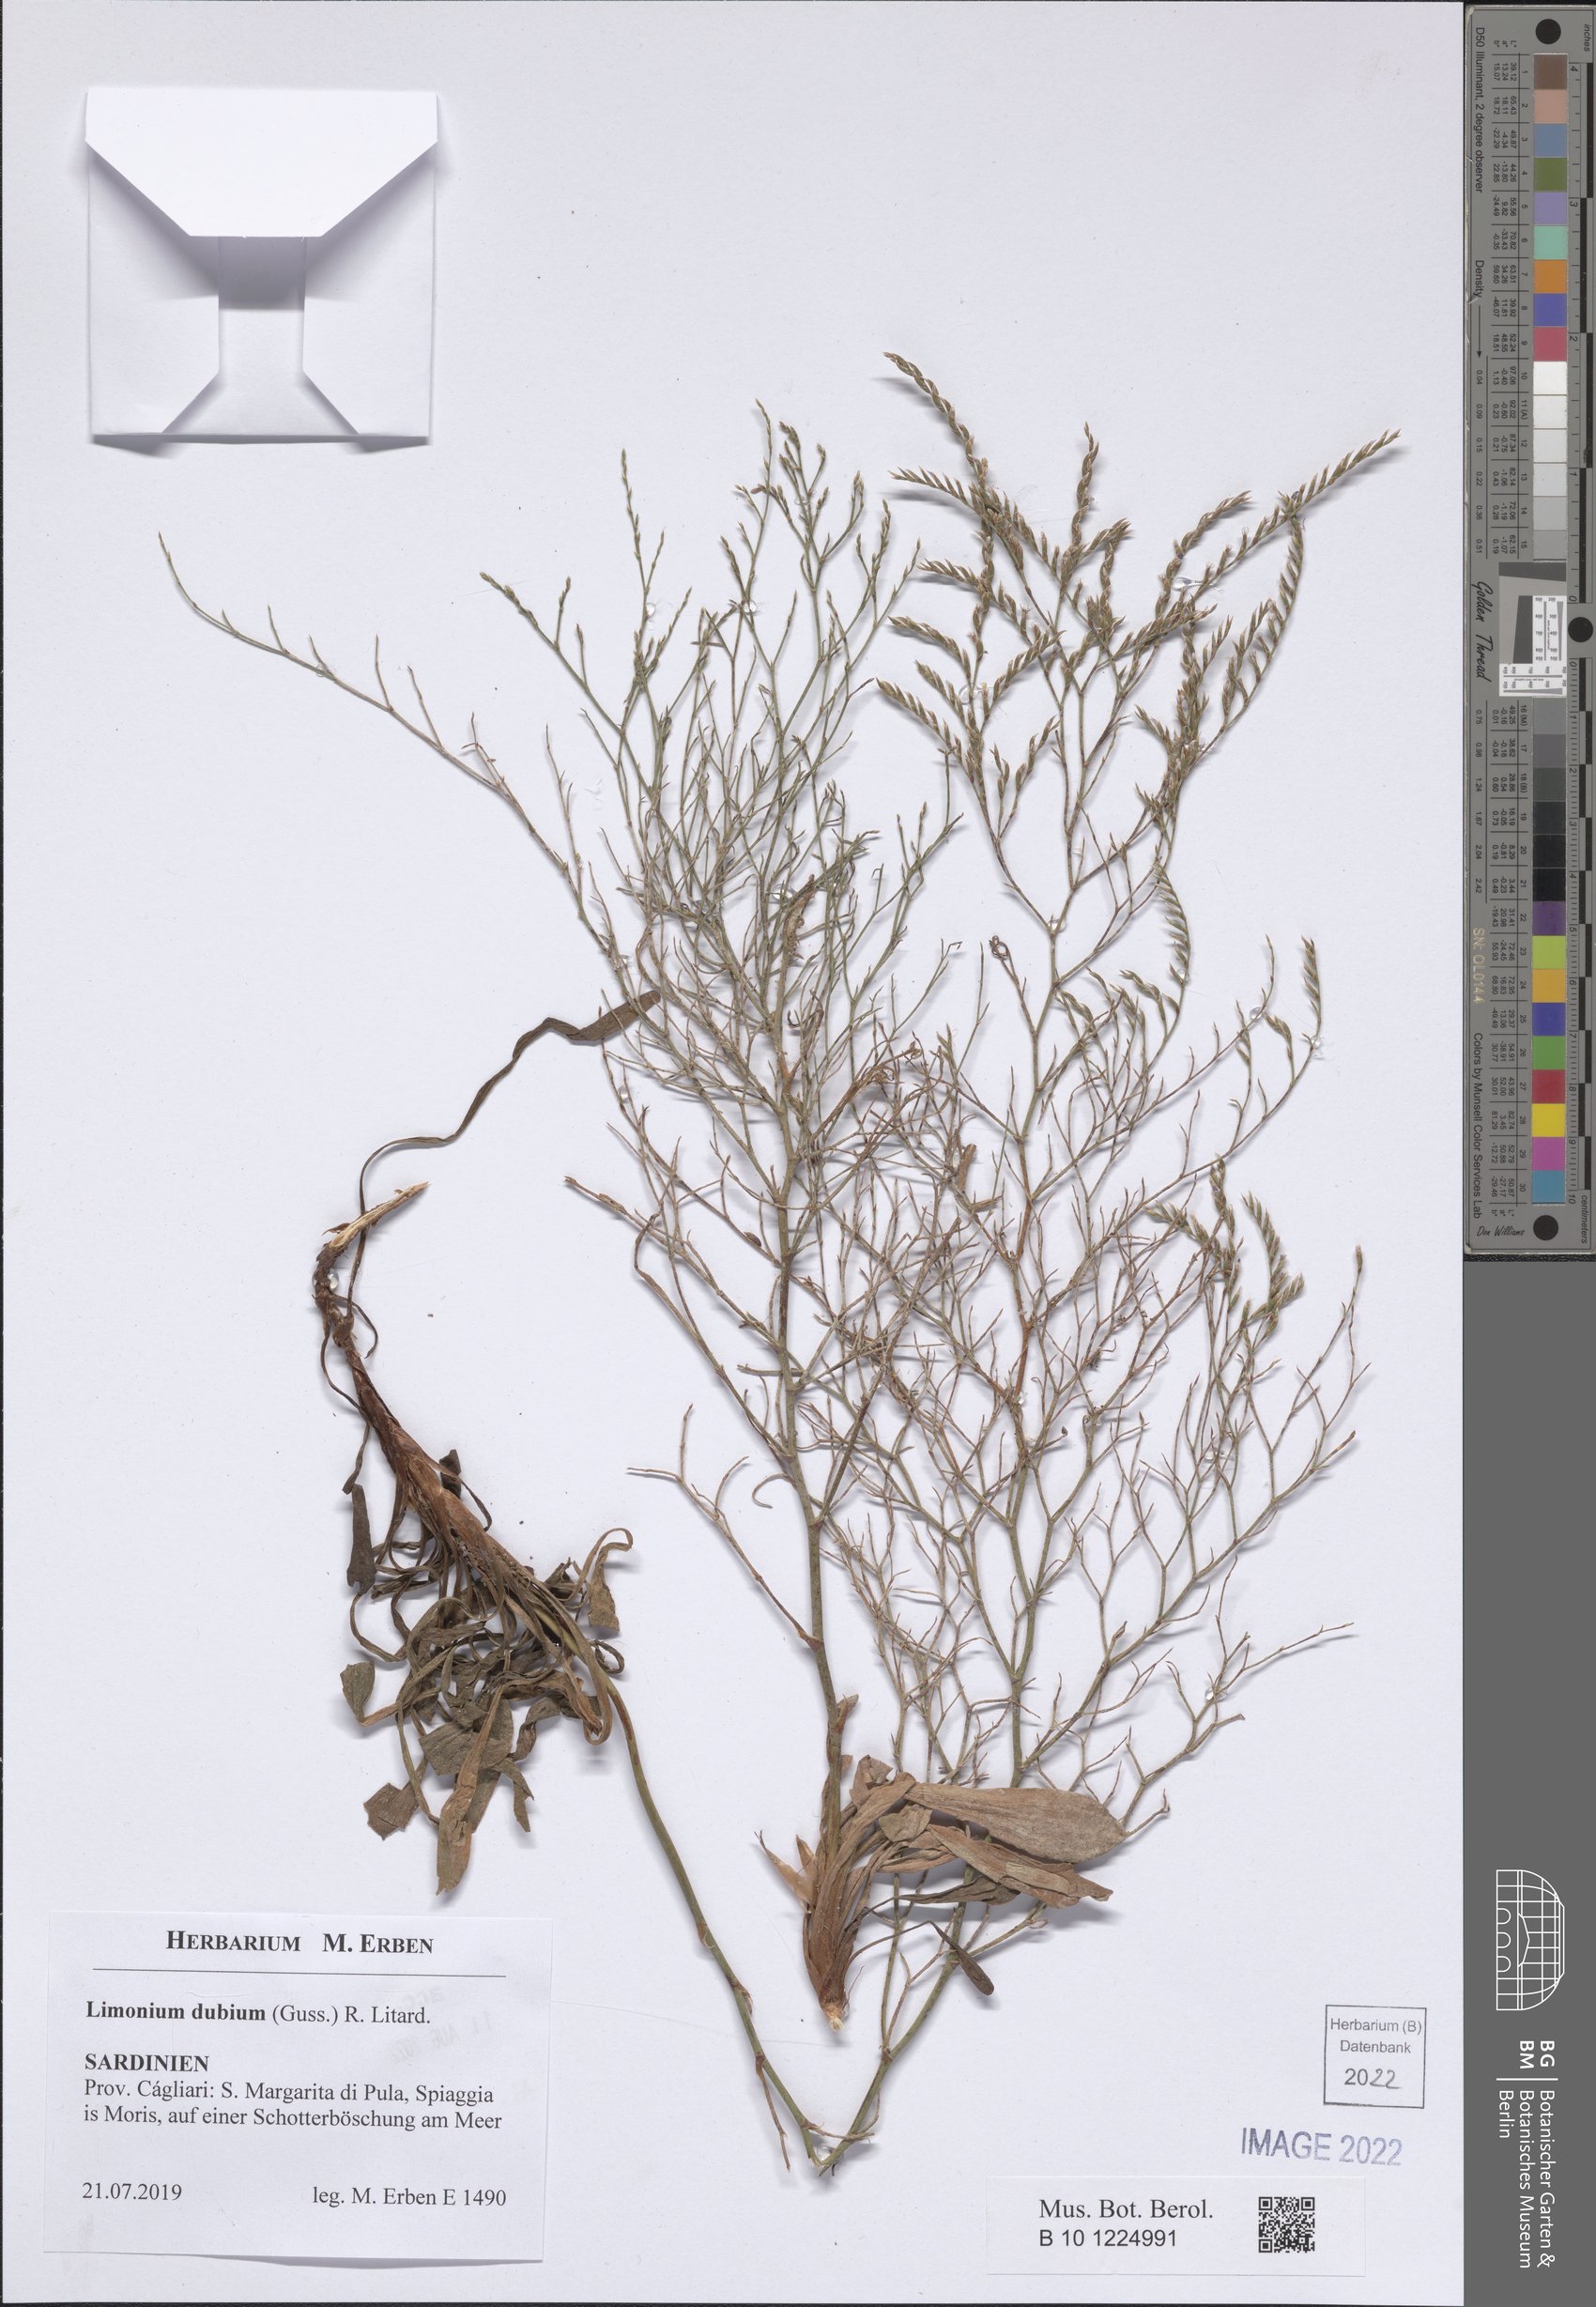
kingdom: Plantae
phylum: Tracheophyta
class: Magnoliopsida
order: Caryophyllales
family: Plumbaginaceae
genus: Limonium
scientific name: Limonium dubium
